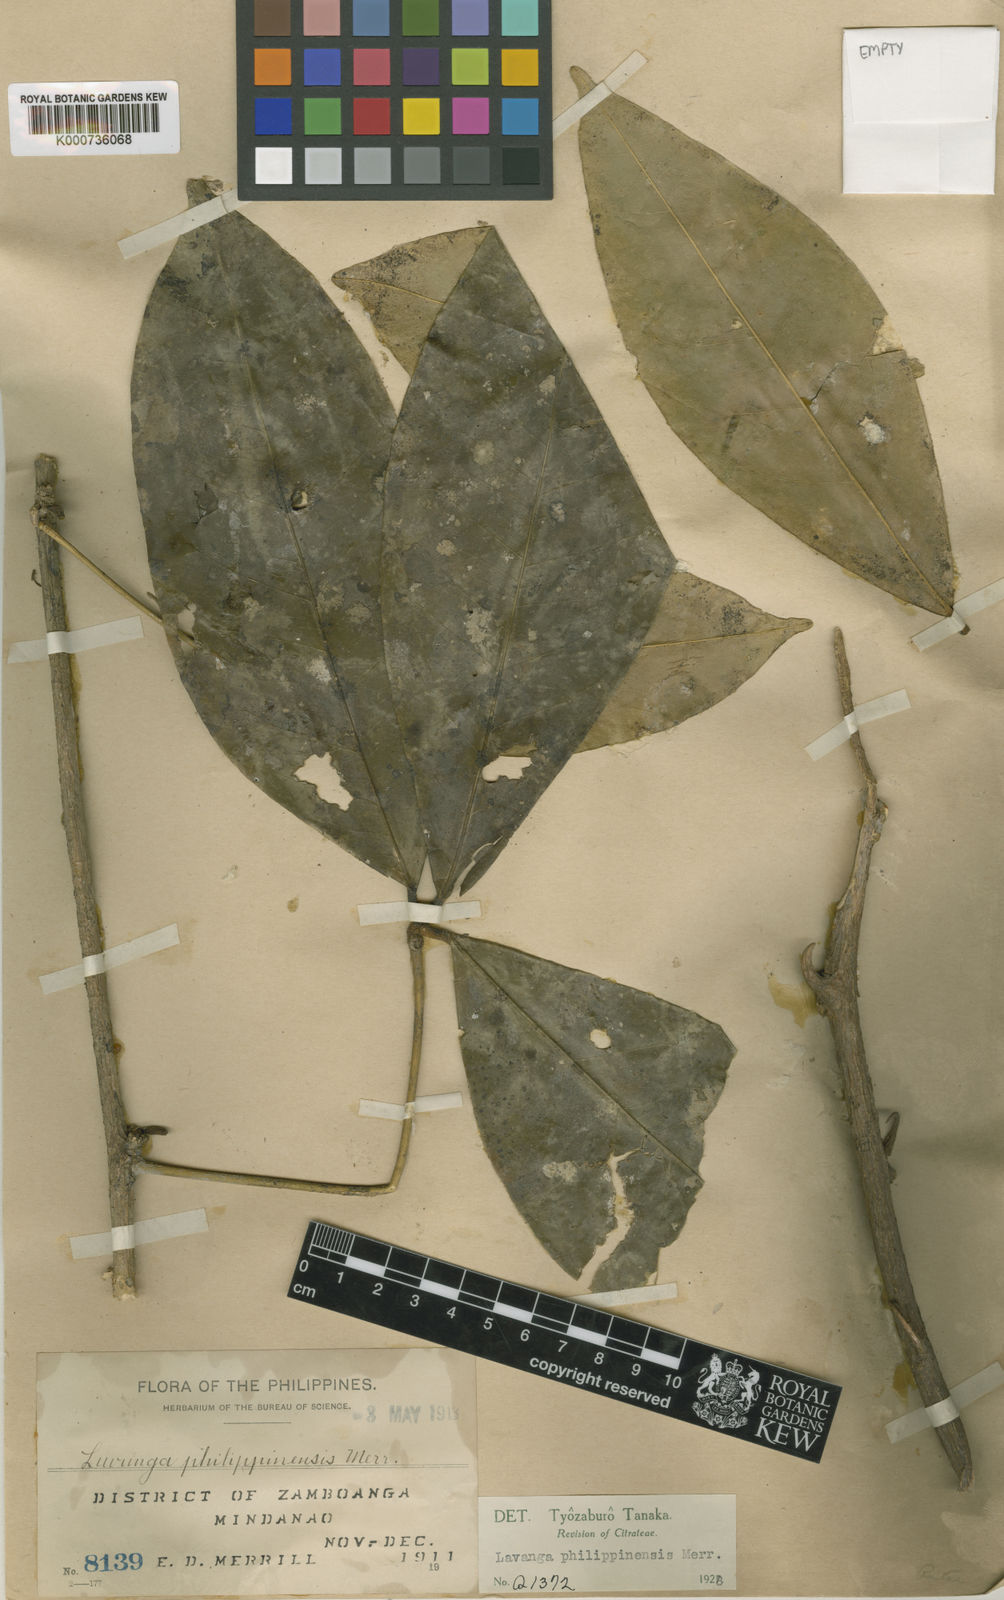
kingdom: Plantae
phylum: Tracheophyta
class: Magnoliopsida
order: Sapindales
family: Rutaceae
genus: Luvunga
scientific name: Luvunga philippinensis
